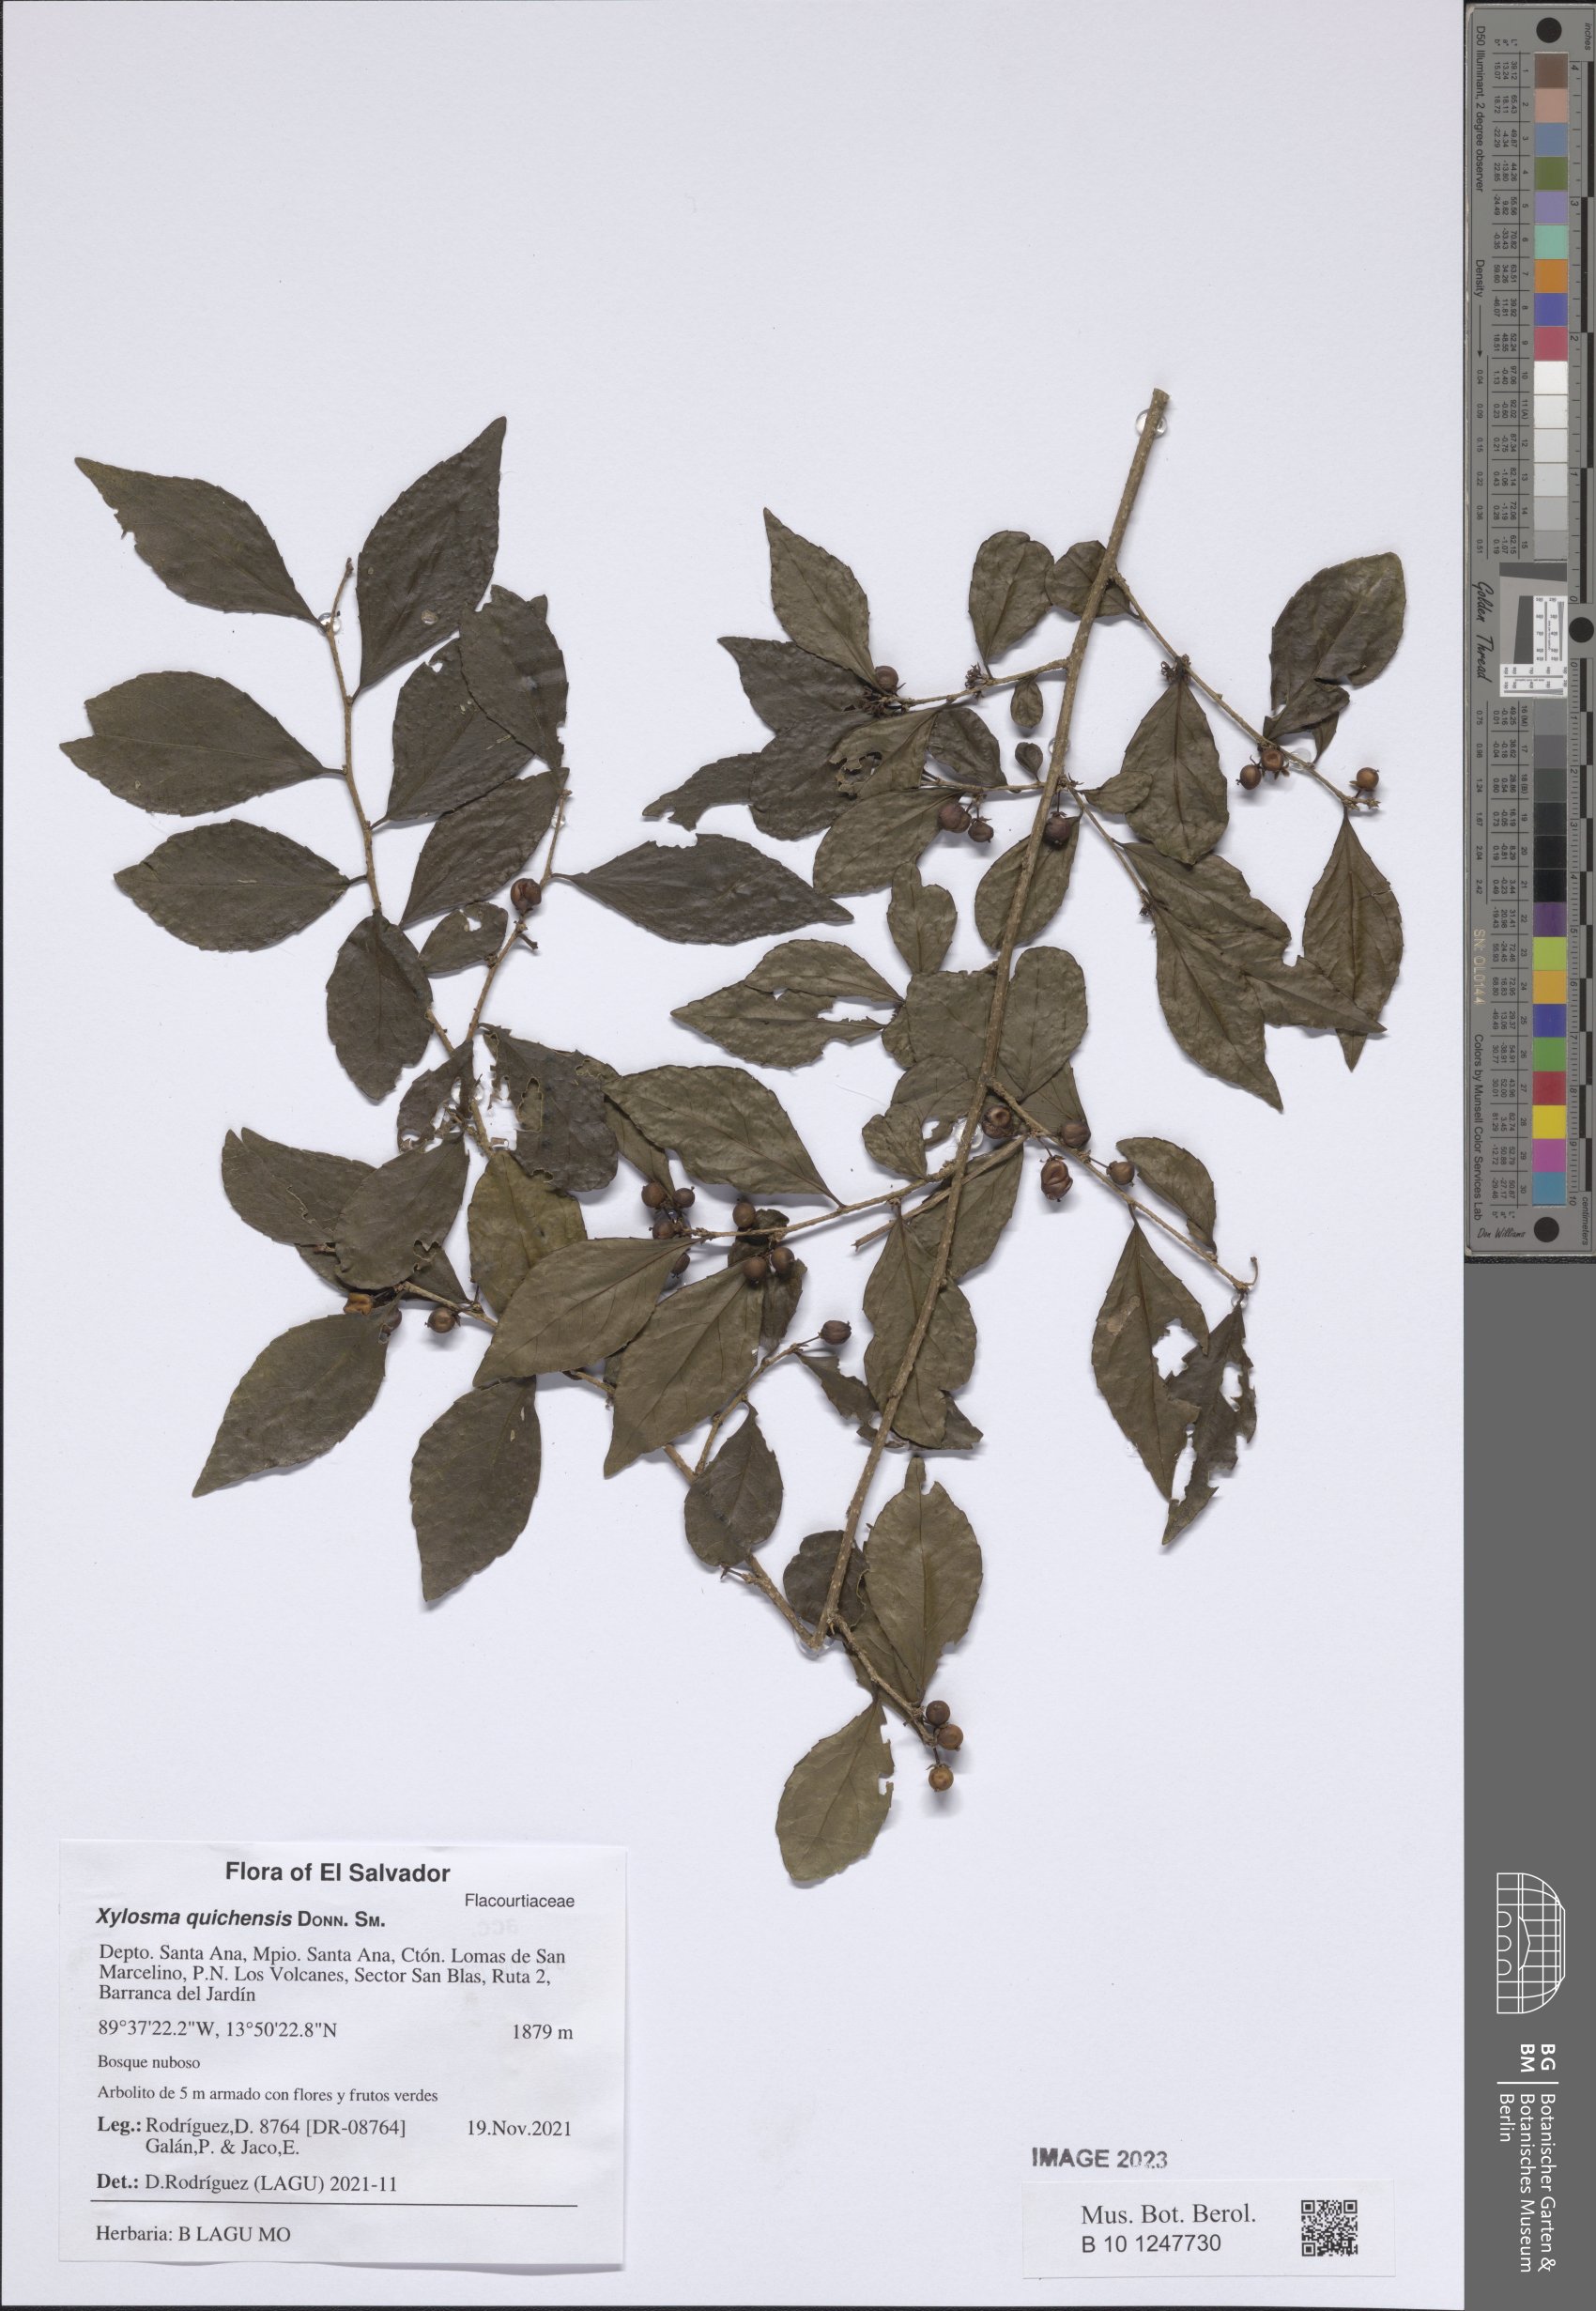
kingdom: Plantae
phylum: Tracheophyta
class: Magnoliopsida
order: Malpighiales
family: Salicaceae
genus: Xylosma
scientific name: Xylosma quichensis
